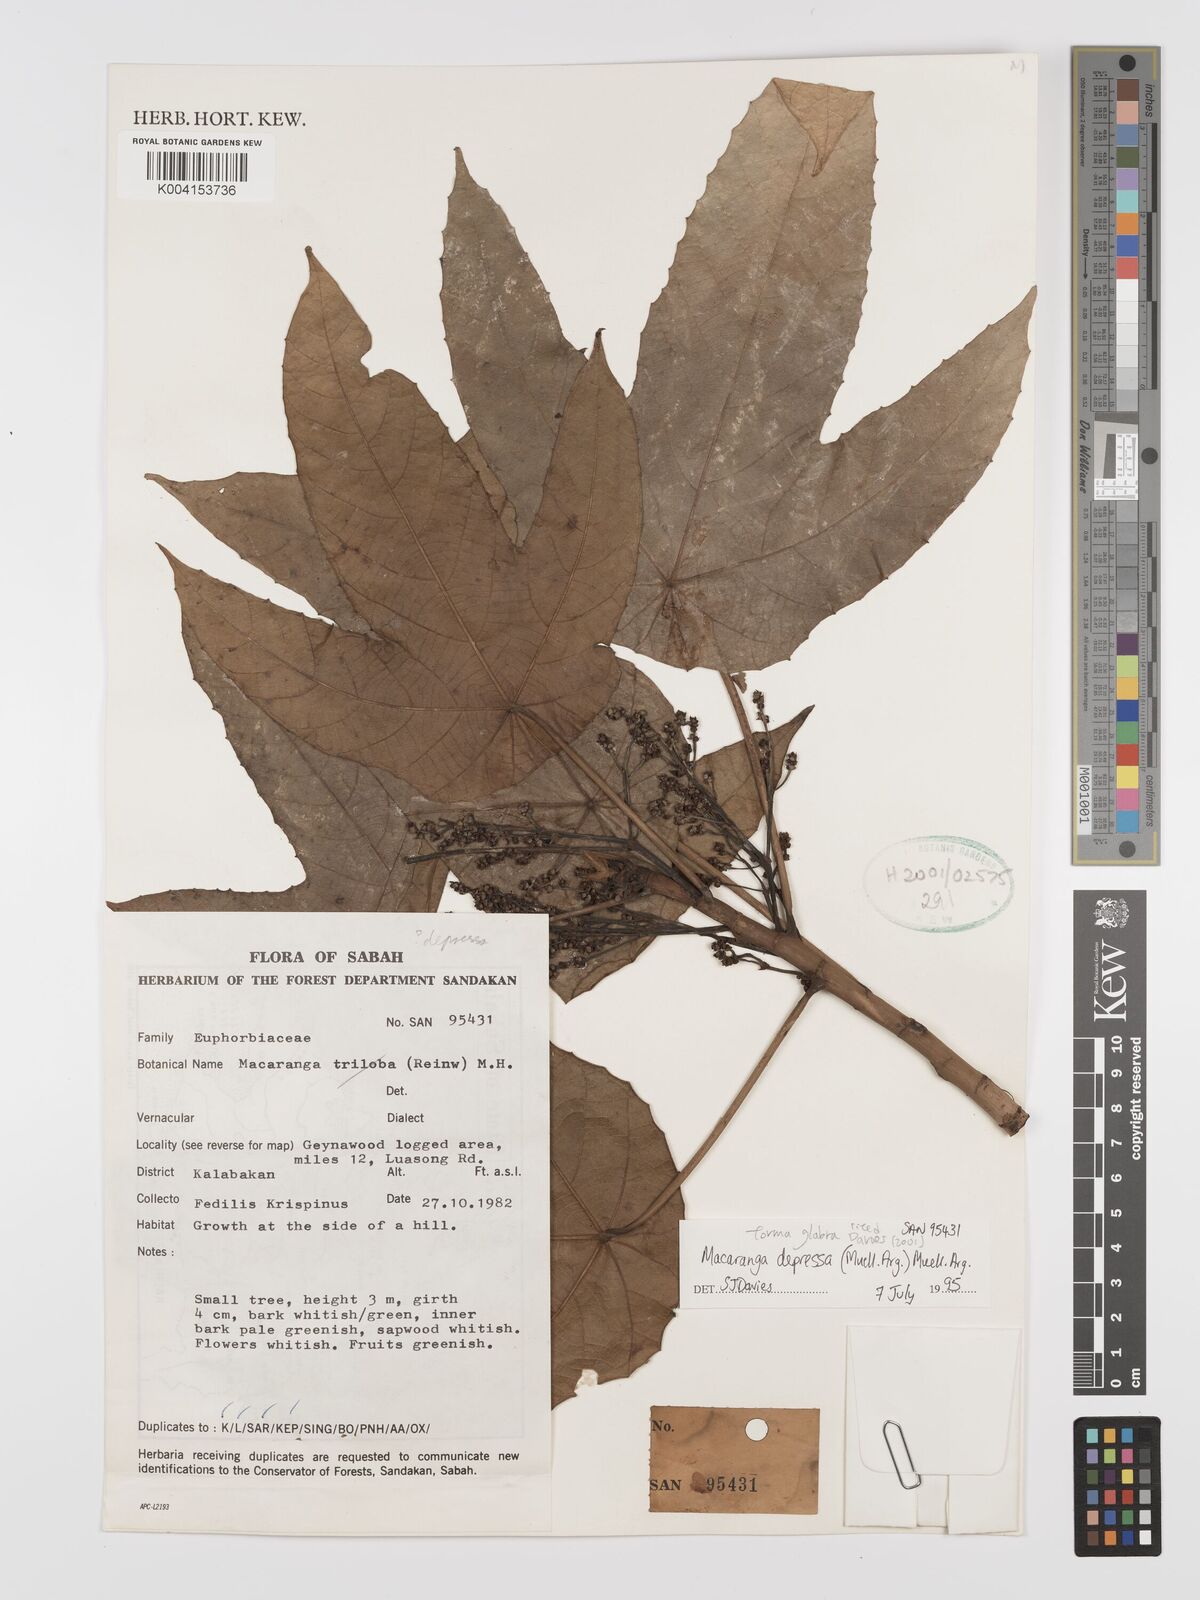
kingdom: Plantae
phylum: Tracheophyta
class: Magnoliopsida
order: Malpighiales
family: Euphorbiaceae
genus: Macaranga
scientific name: Macaranga depressa
